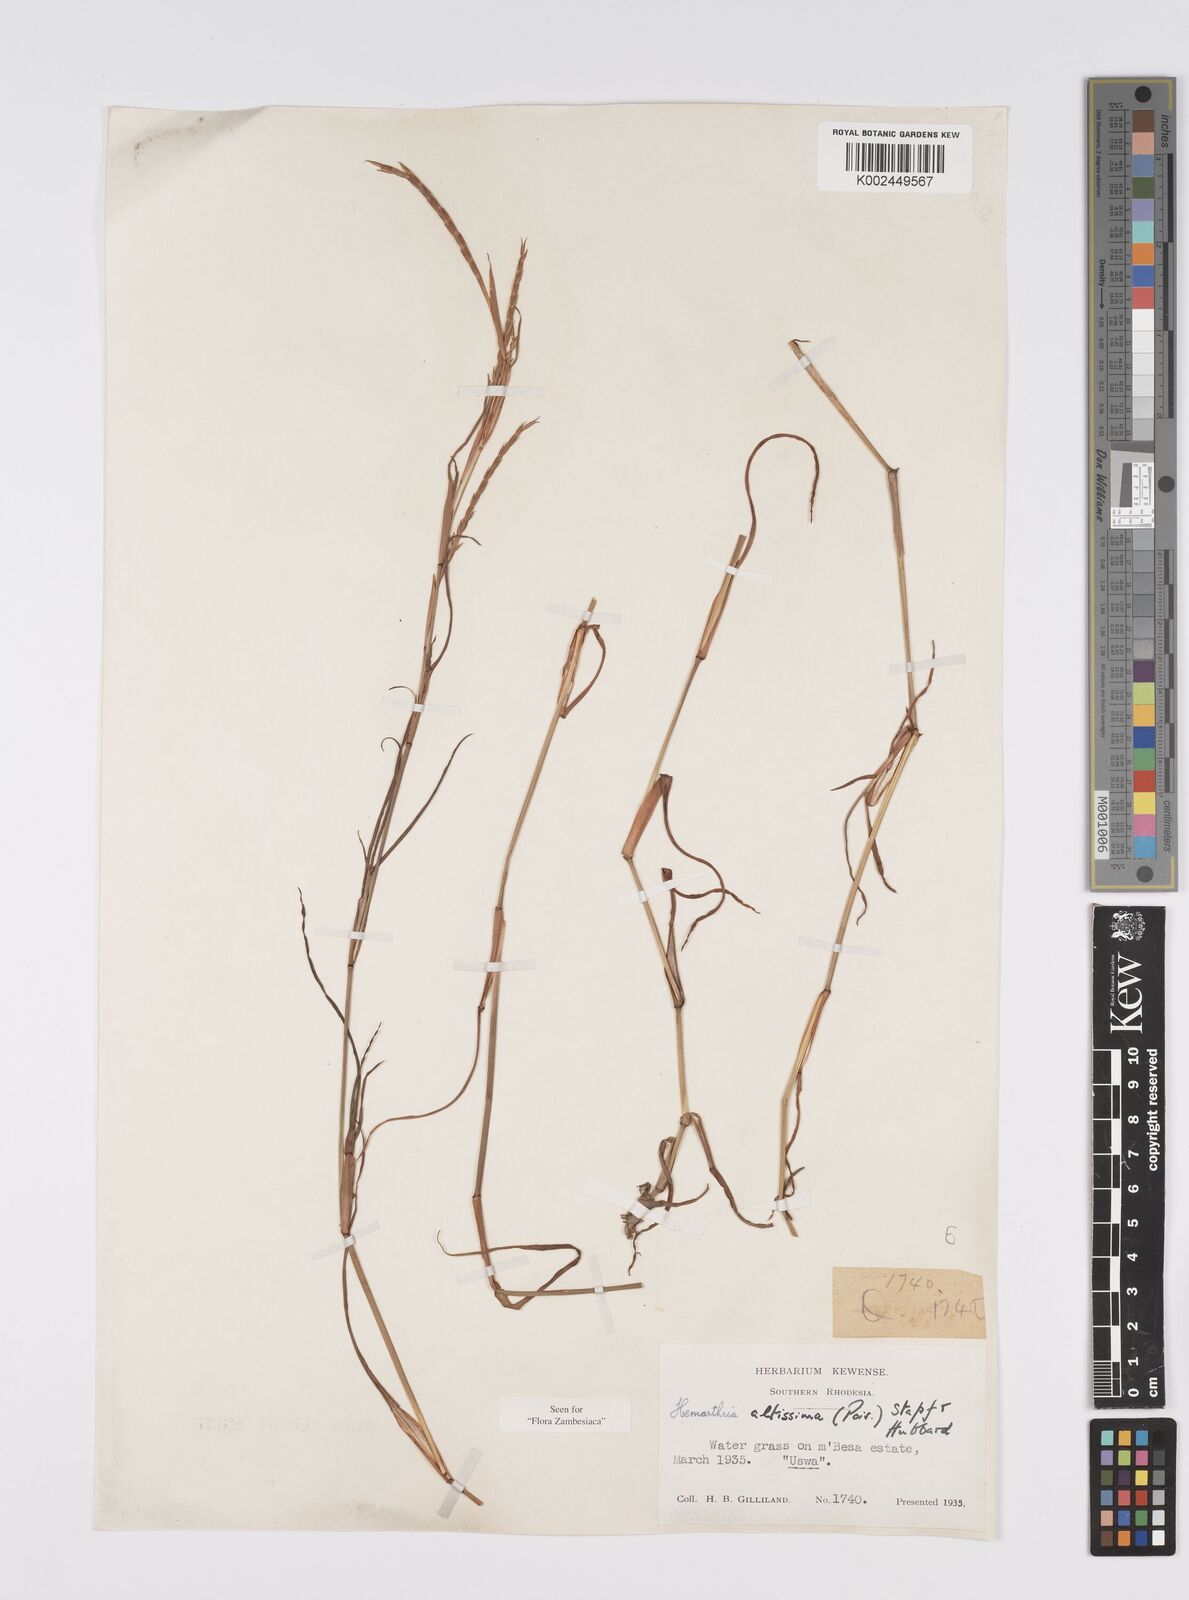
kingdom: Plantae
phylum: Tracheophyta
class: Liliopsida
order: Poales
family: Poaceae
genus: Hemarthria
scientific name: Hemarthria altissima
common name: African jointgrass
